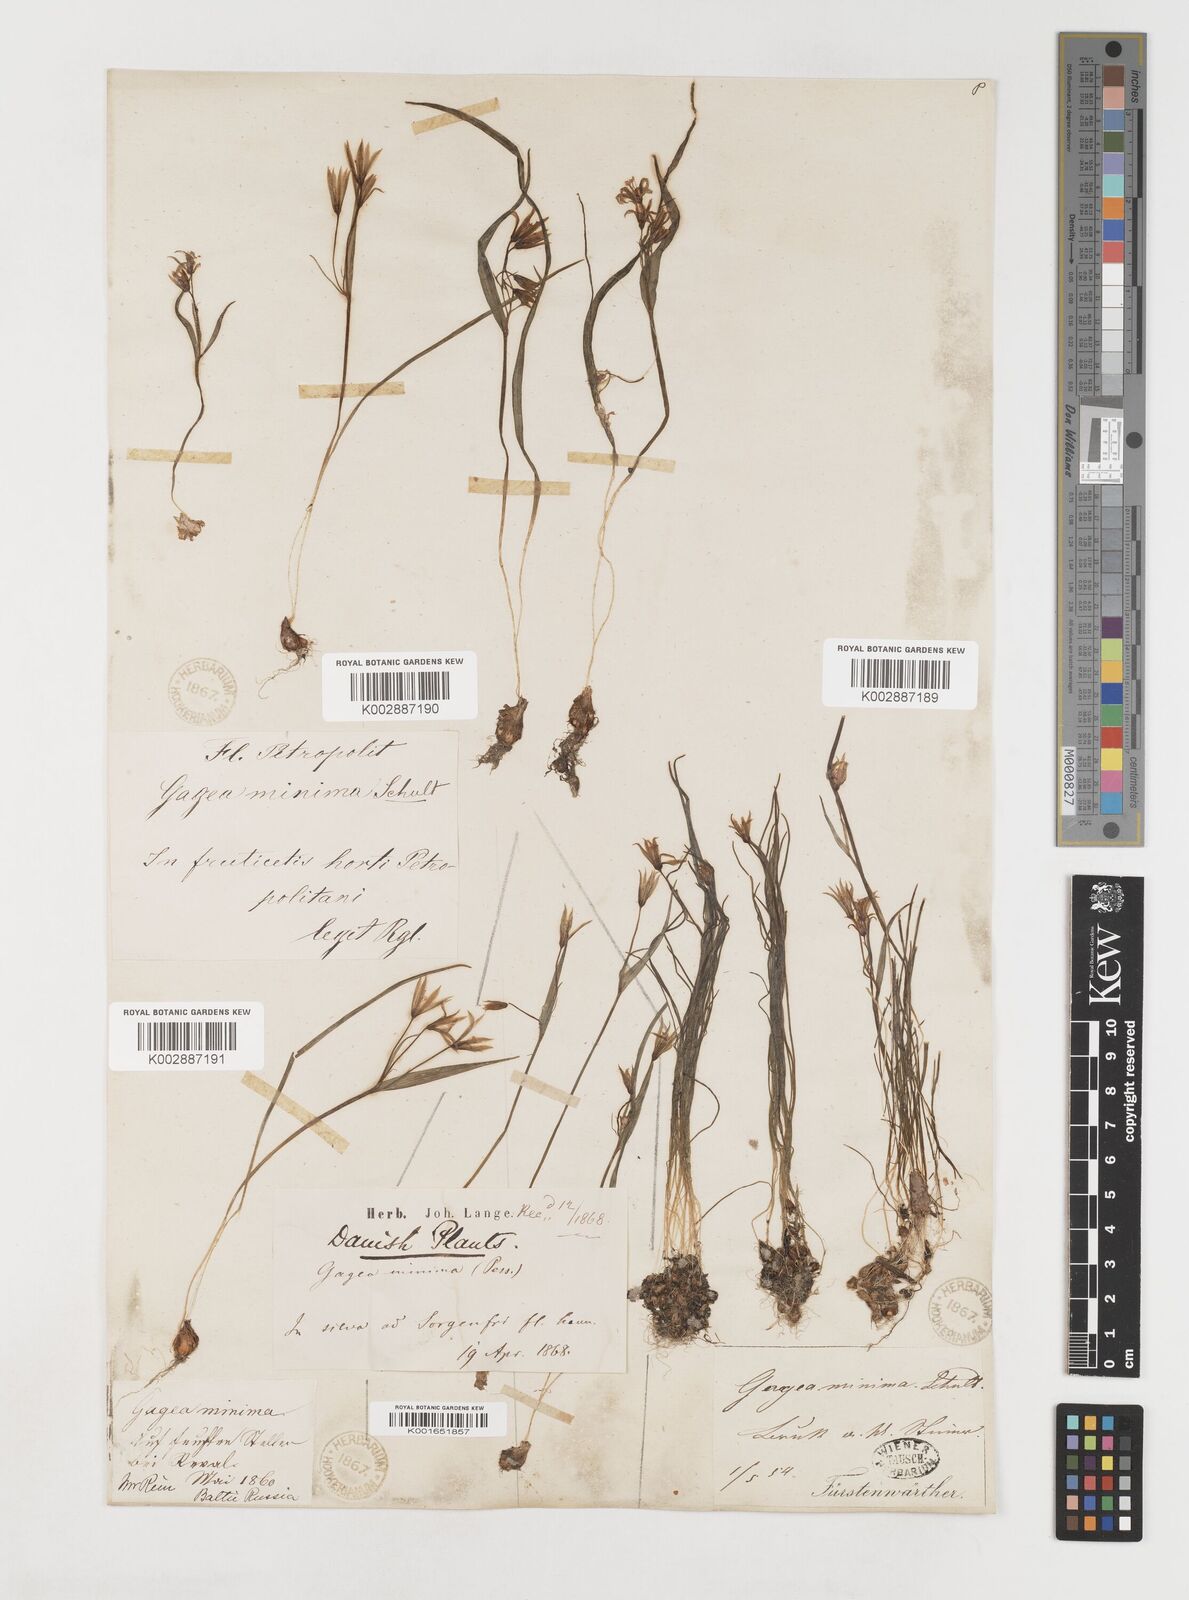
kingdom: Plantae
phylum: Tracheophyta
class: Liliopsida
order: Liliales
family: Liliaceae
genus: Gagea
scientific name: Gagea minima
